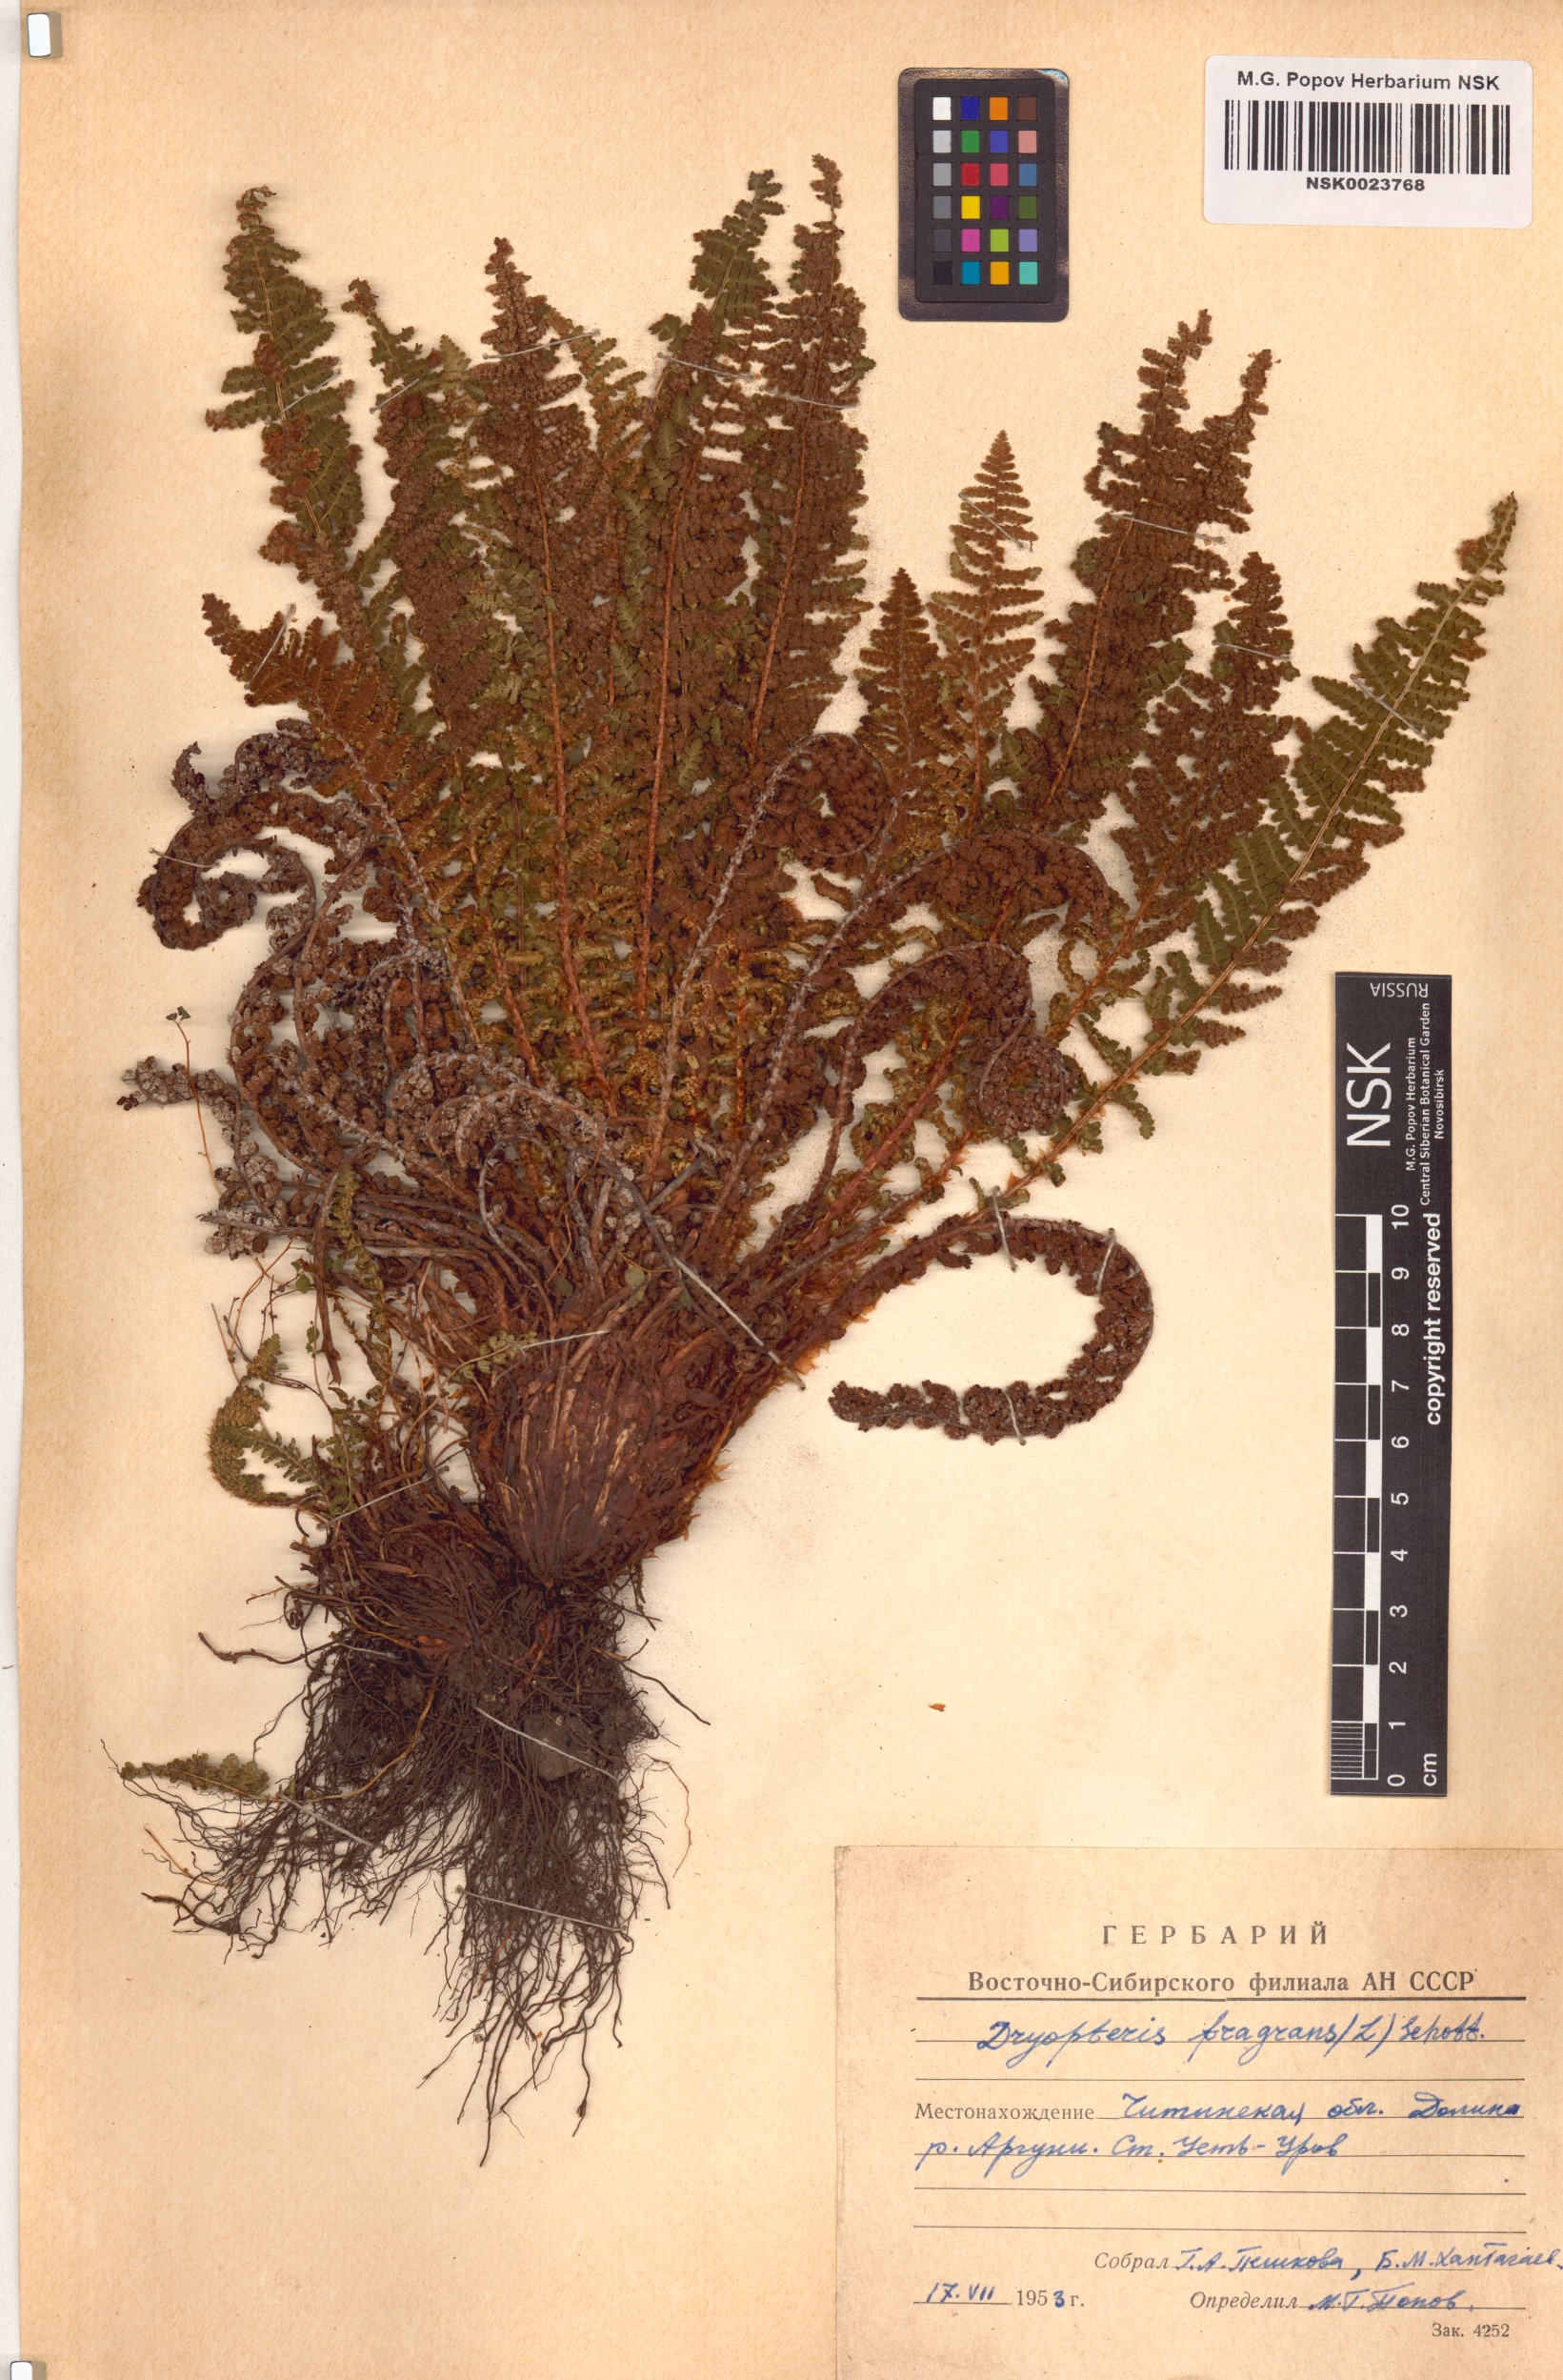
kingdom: Plantae
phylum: Tracheophyta
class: Polypodiopsida
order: Polypodiales
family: Dryopteridaceae
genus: Dryopteris
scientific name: Dryopteris fragrans
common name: Fragrant wood fern
